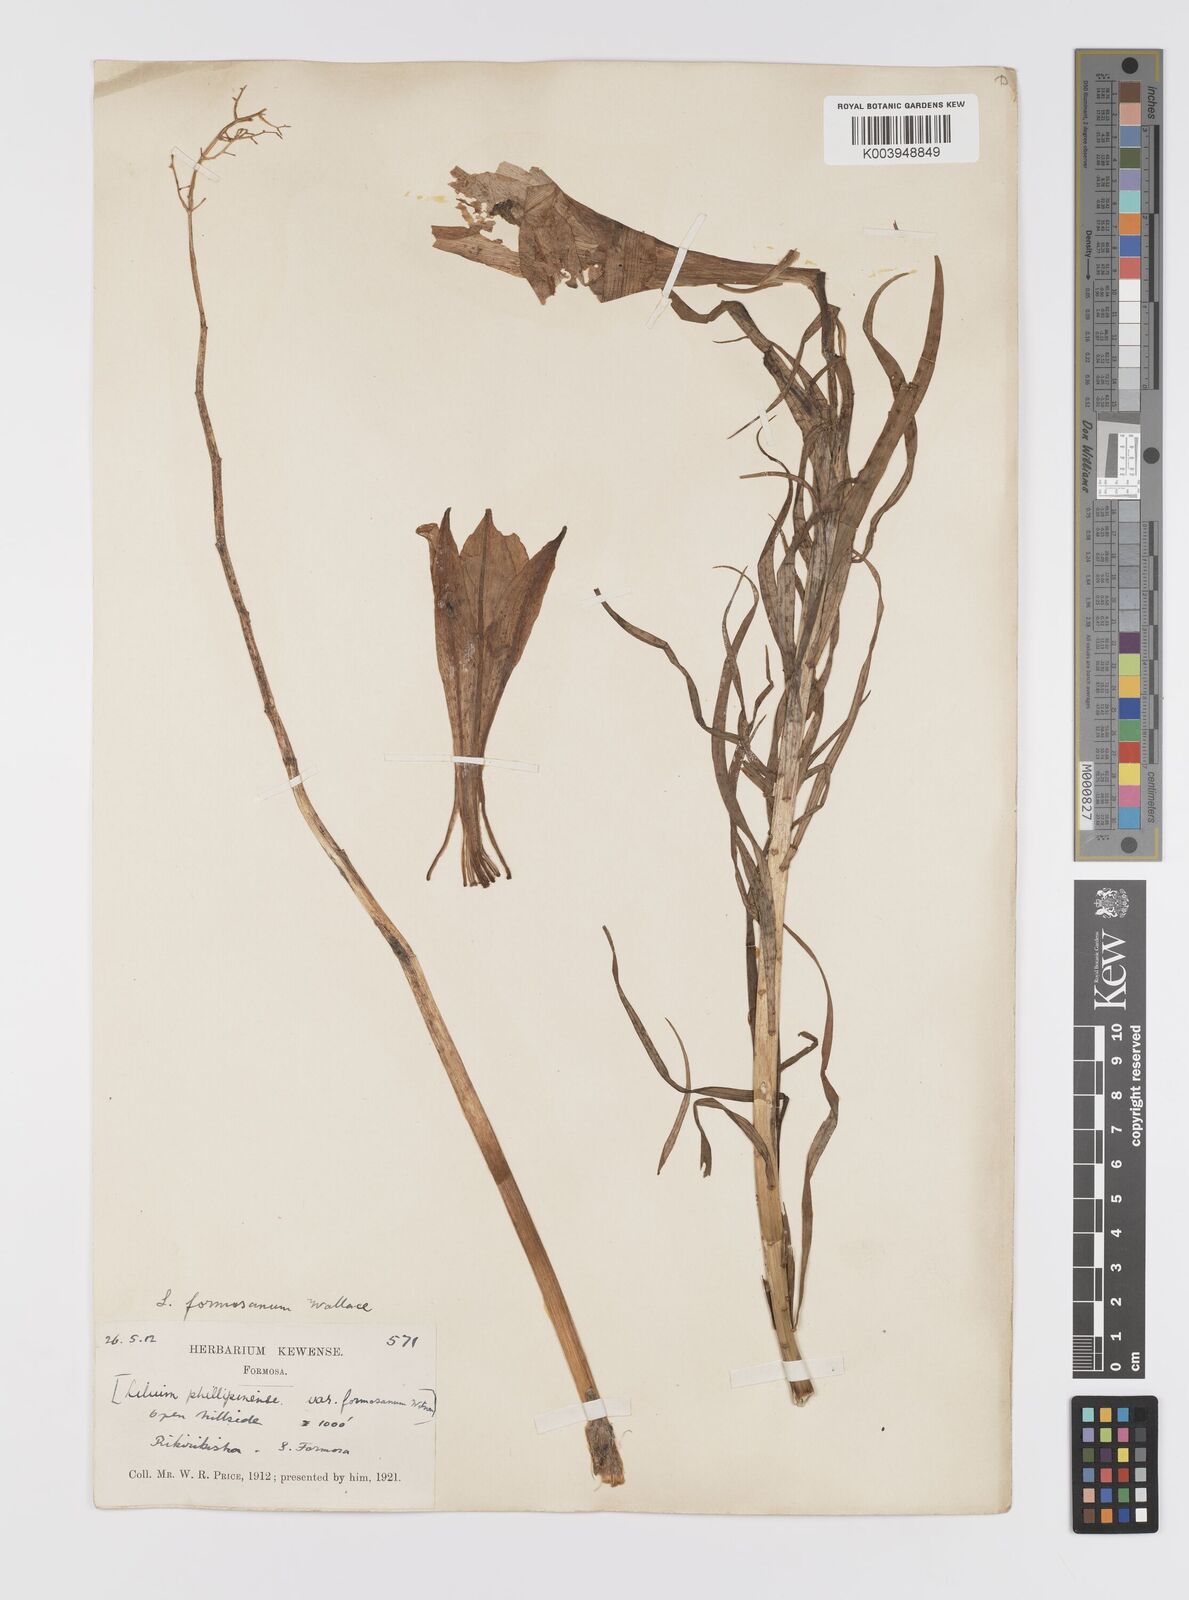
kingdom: Plantae
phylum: Tracheophyta
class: Liliopsida
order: Liliales
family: Liliaceae
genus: Lilium
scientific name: Lilium formosanum
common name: Formosa lily
